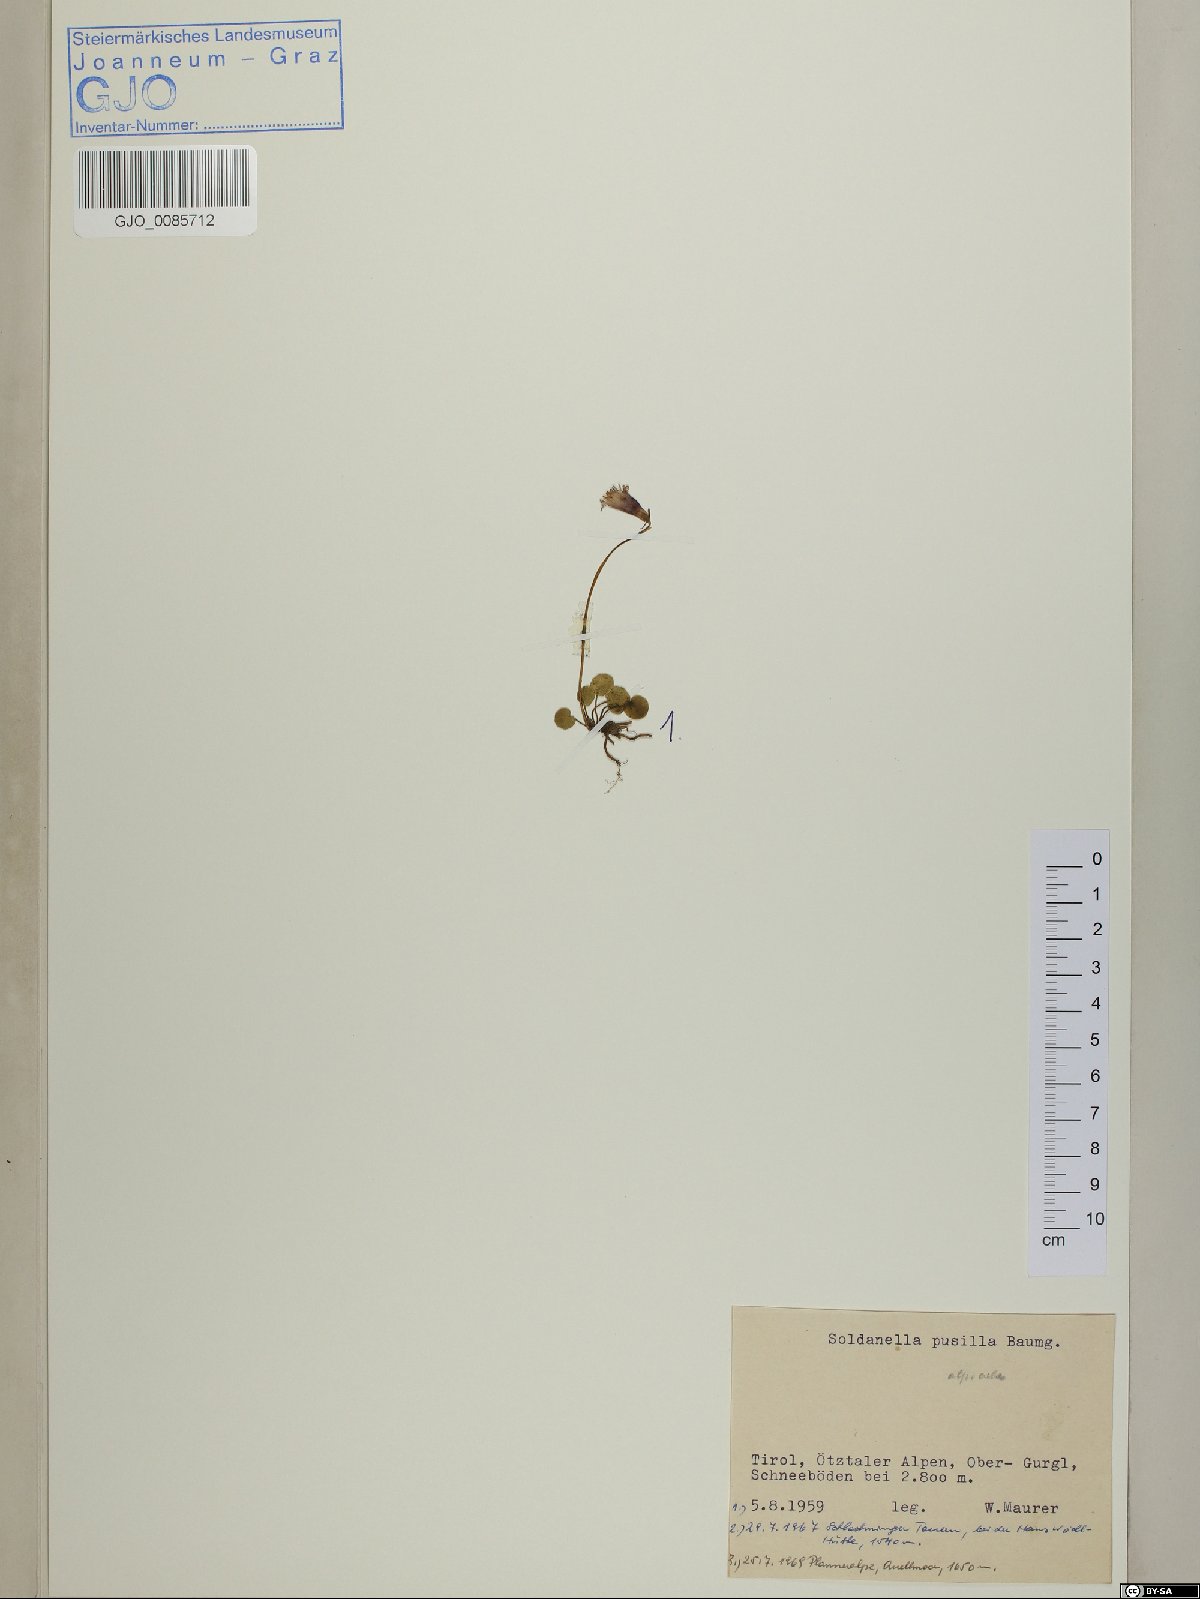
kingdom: Plantae
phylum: Tracheophyta
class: Magnoliopsida
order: Ericales
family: Primulaceae
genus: Soldanella
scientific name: Soldanella pusilla
